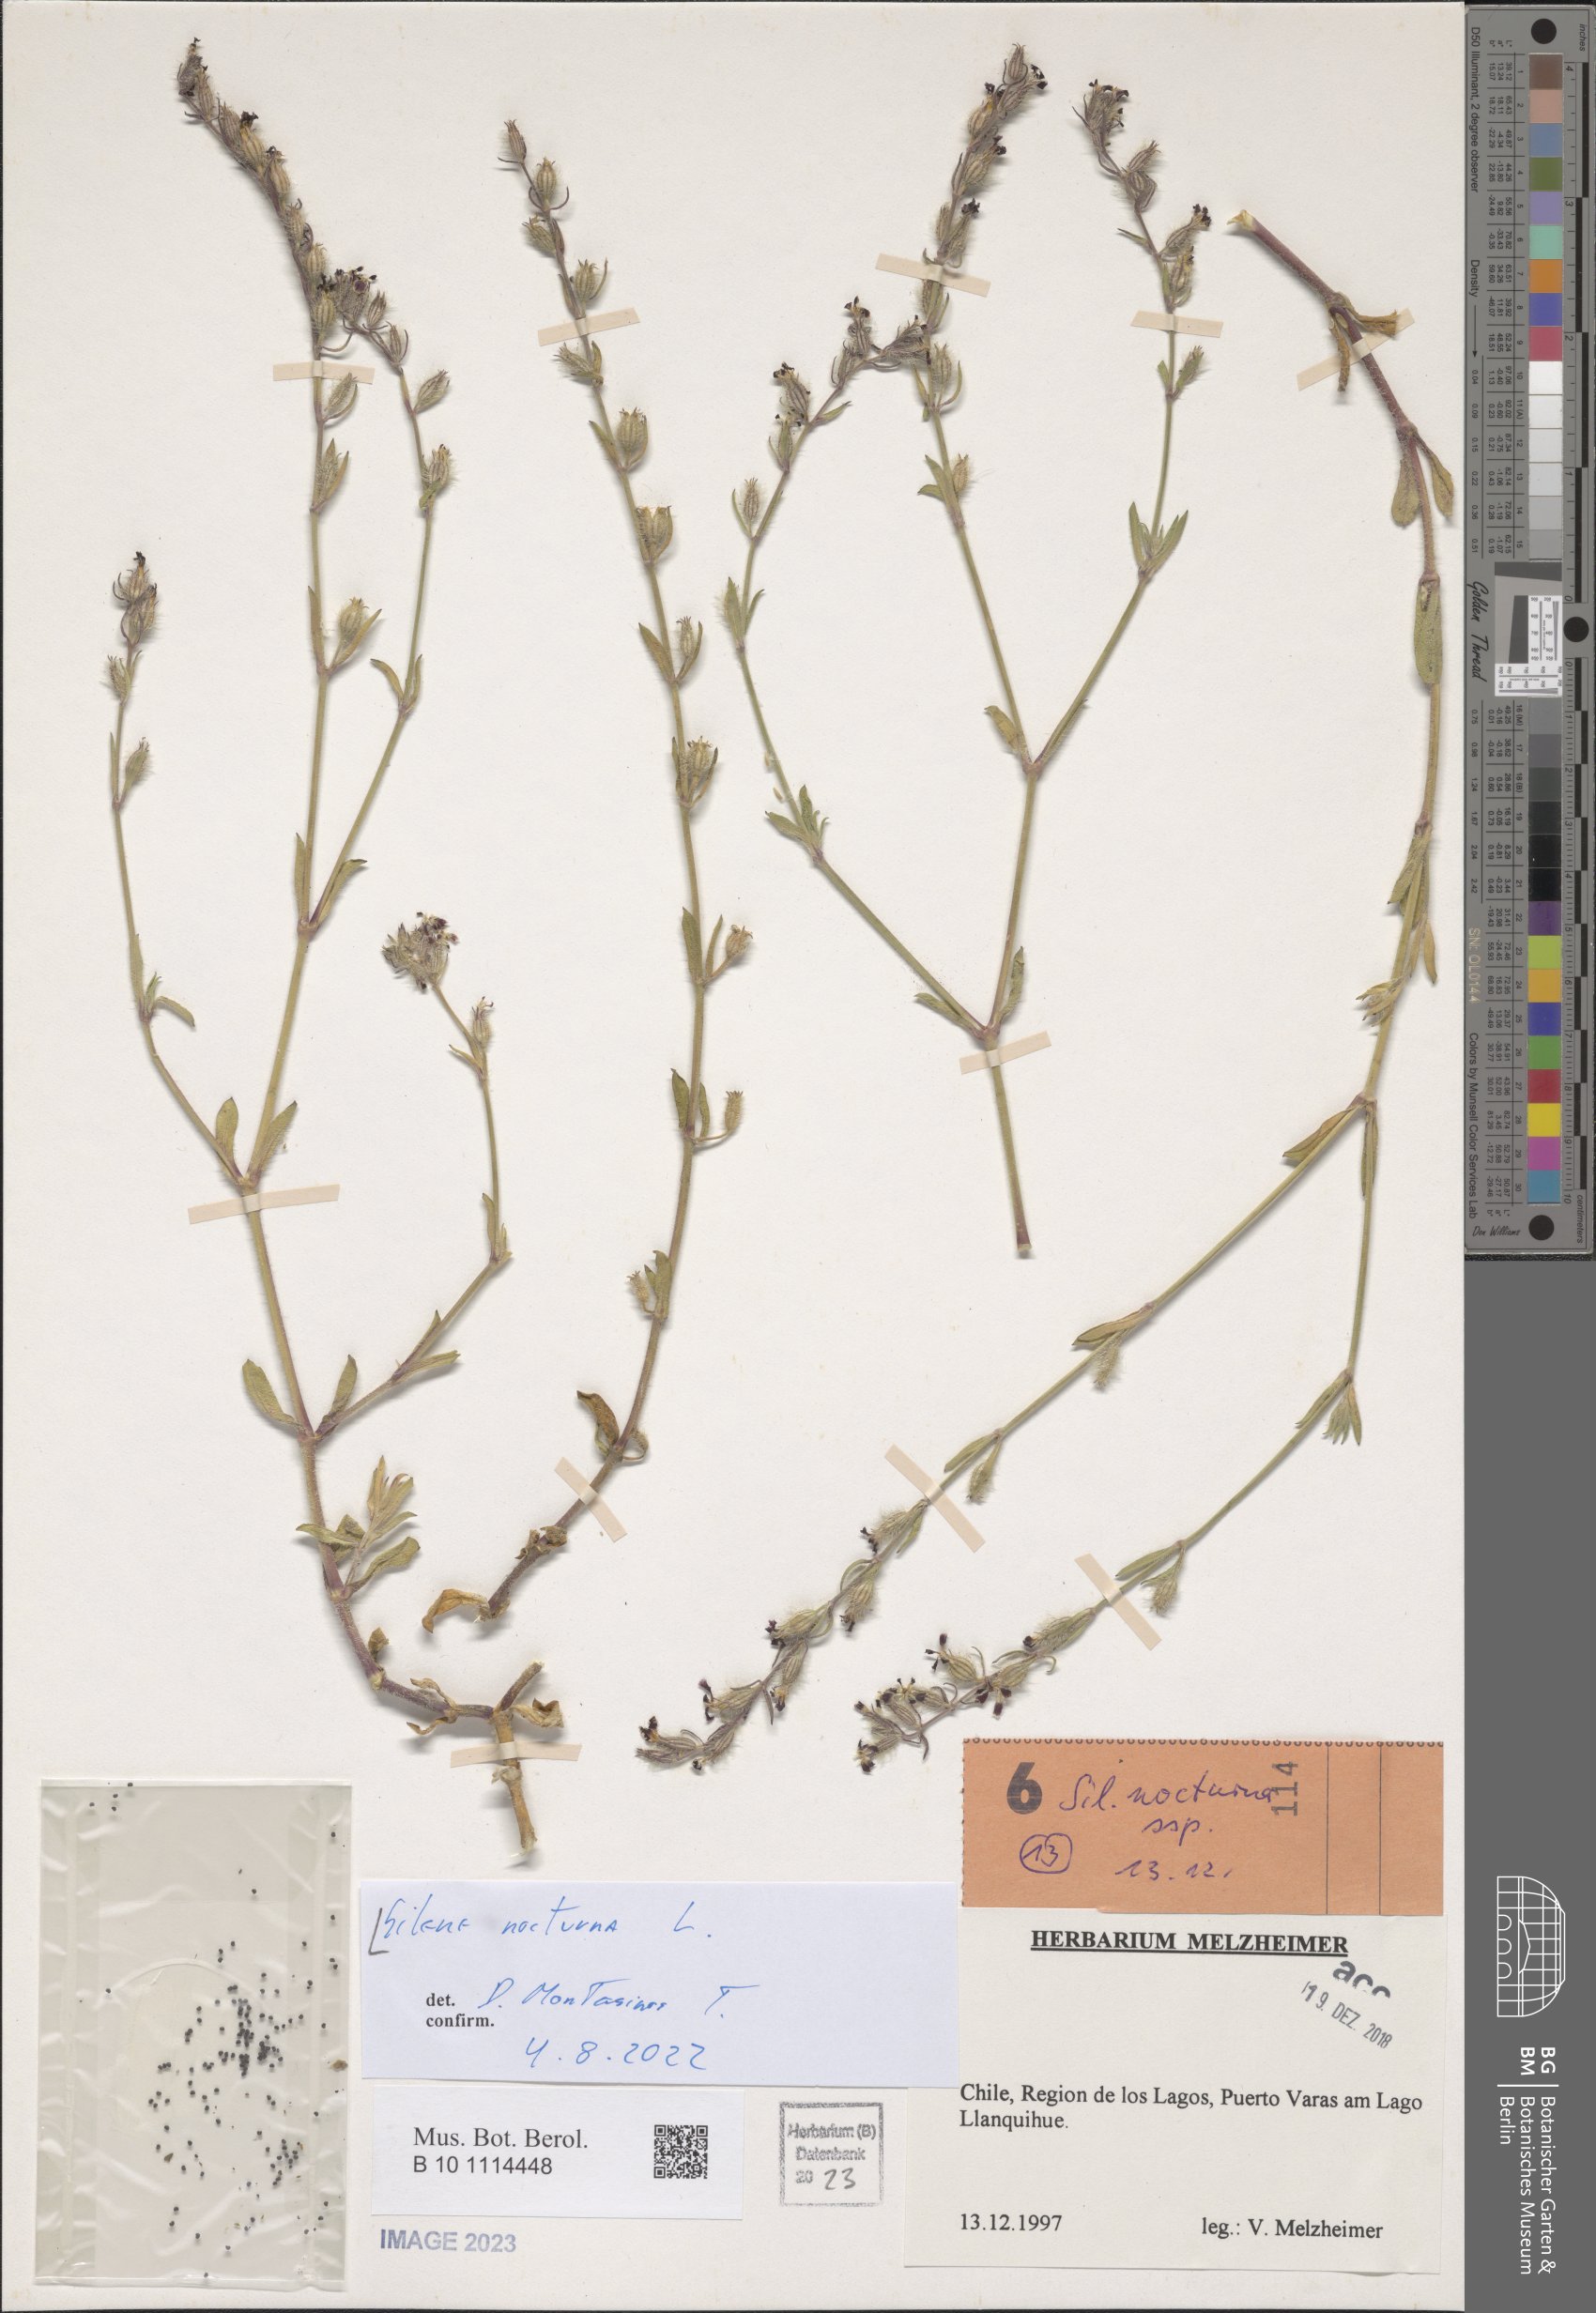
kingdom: Plantae
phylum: Tracheophyta
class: Magnoliopsida
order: Caryophyllales
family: Caryophyllaceae
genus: Silene
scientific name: Silene nocturna
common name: Mediterranean catchfly
